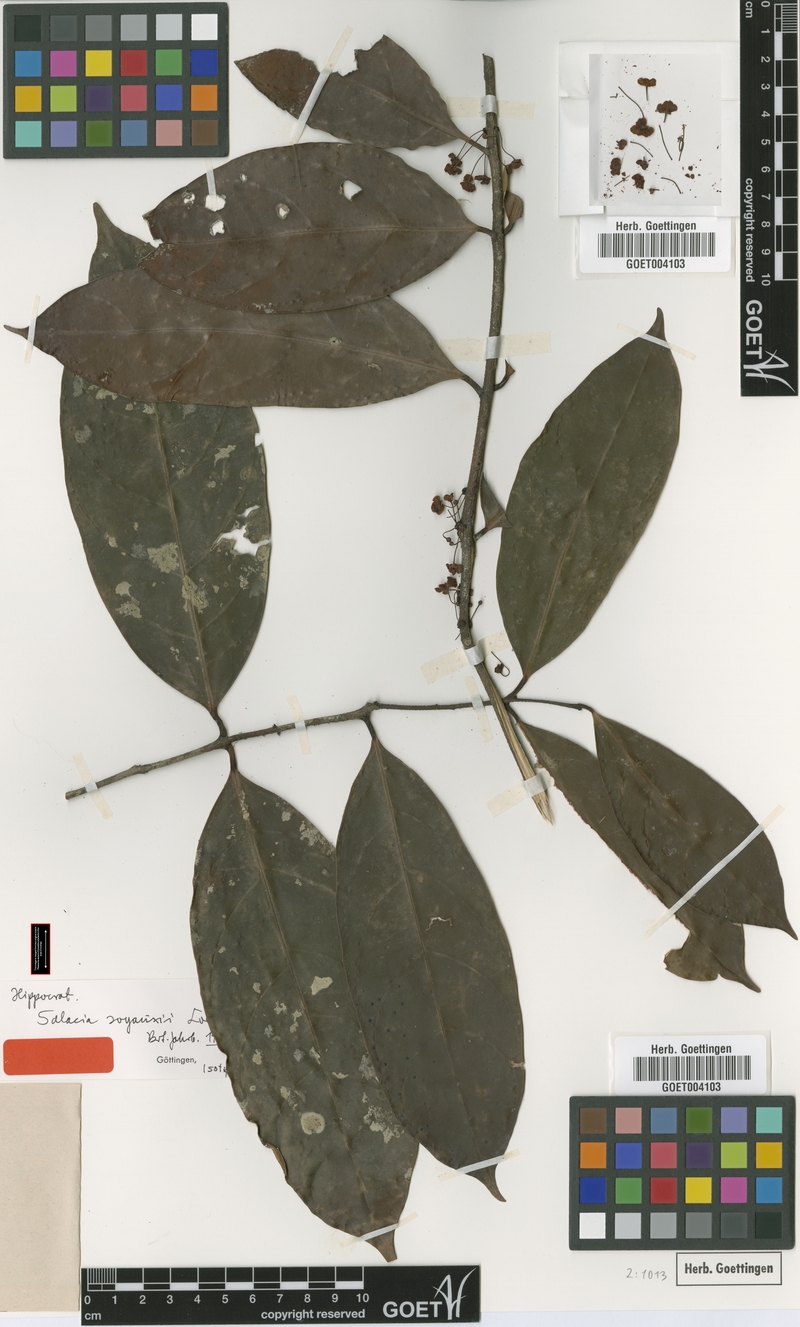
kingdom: Plantae
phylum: Tracheophyta
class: Magnoliopsida
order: Celastrales
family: Celastraceae
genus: Salacia
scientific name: Salacia mannii
